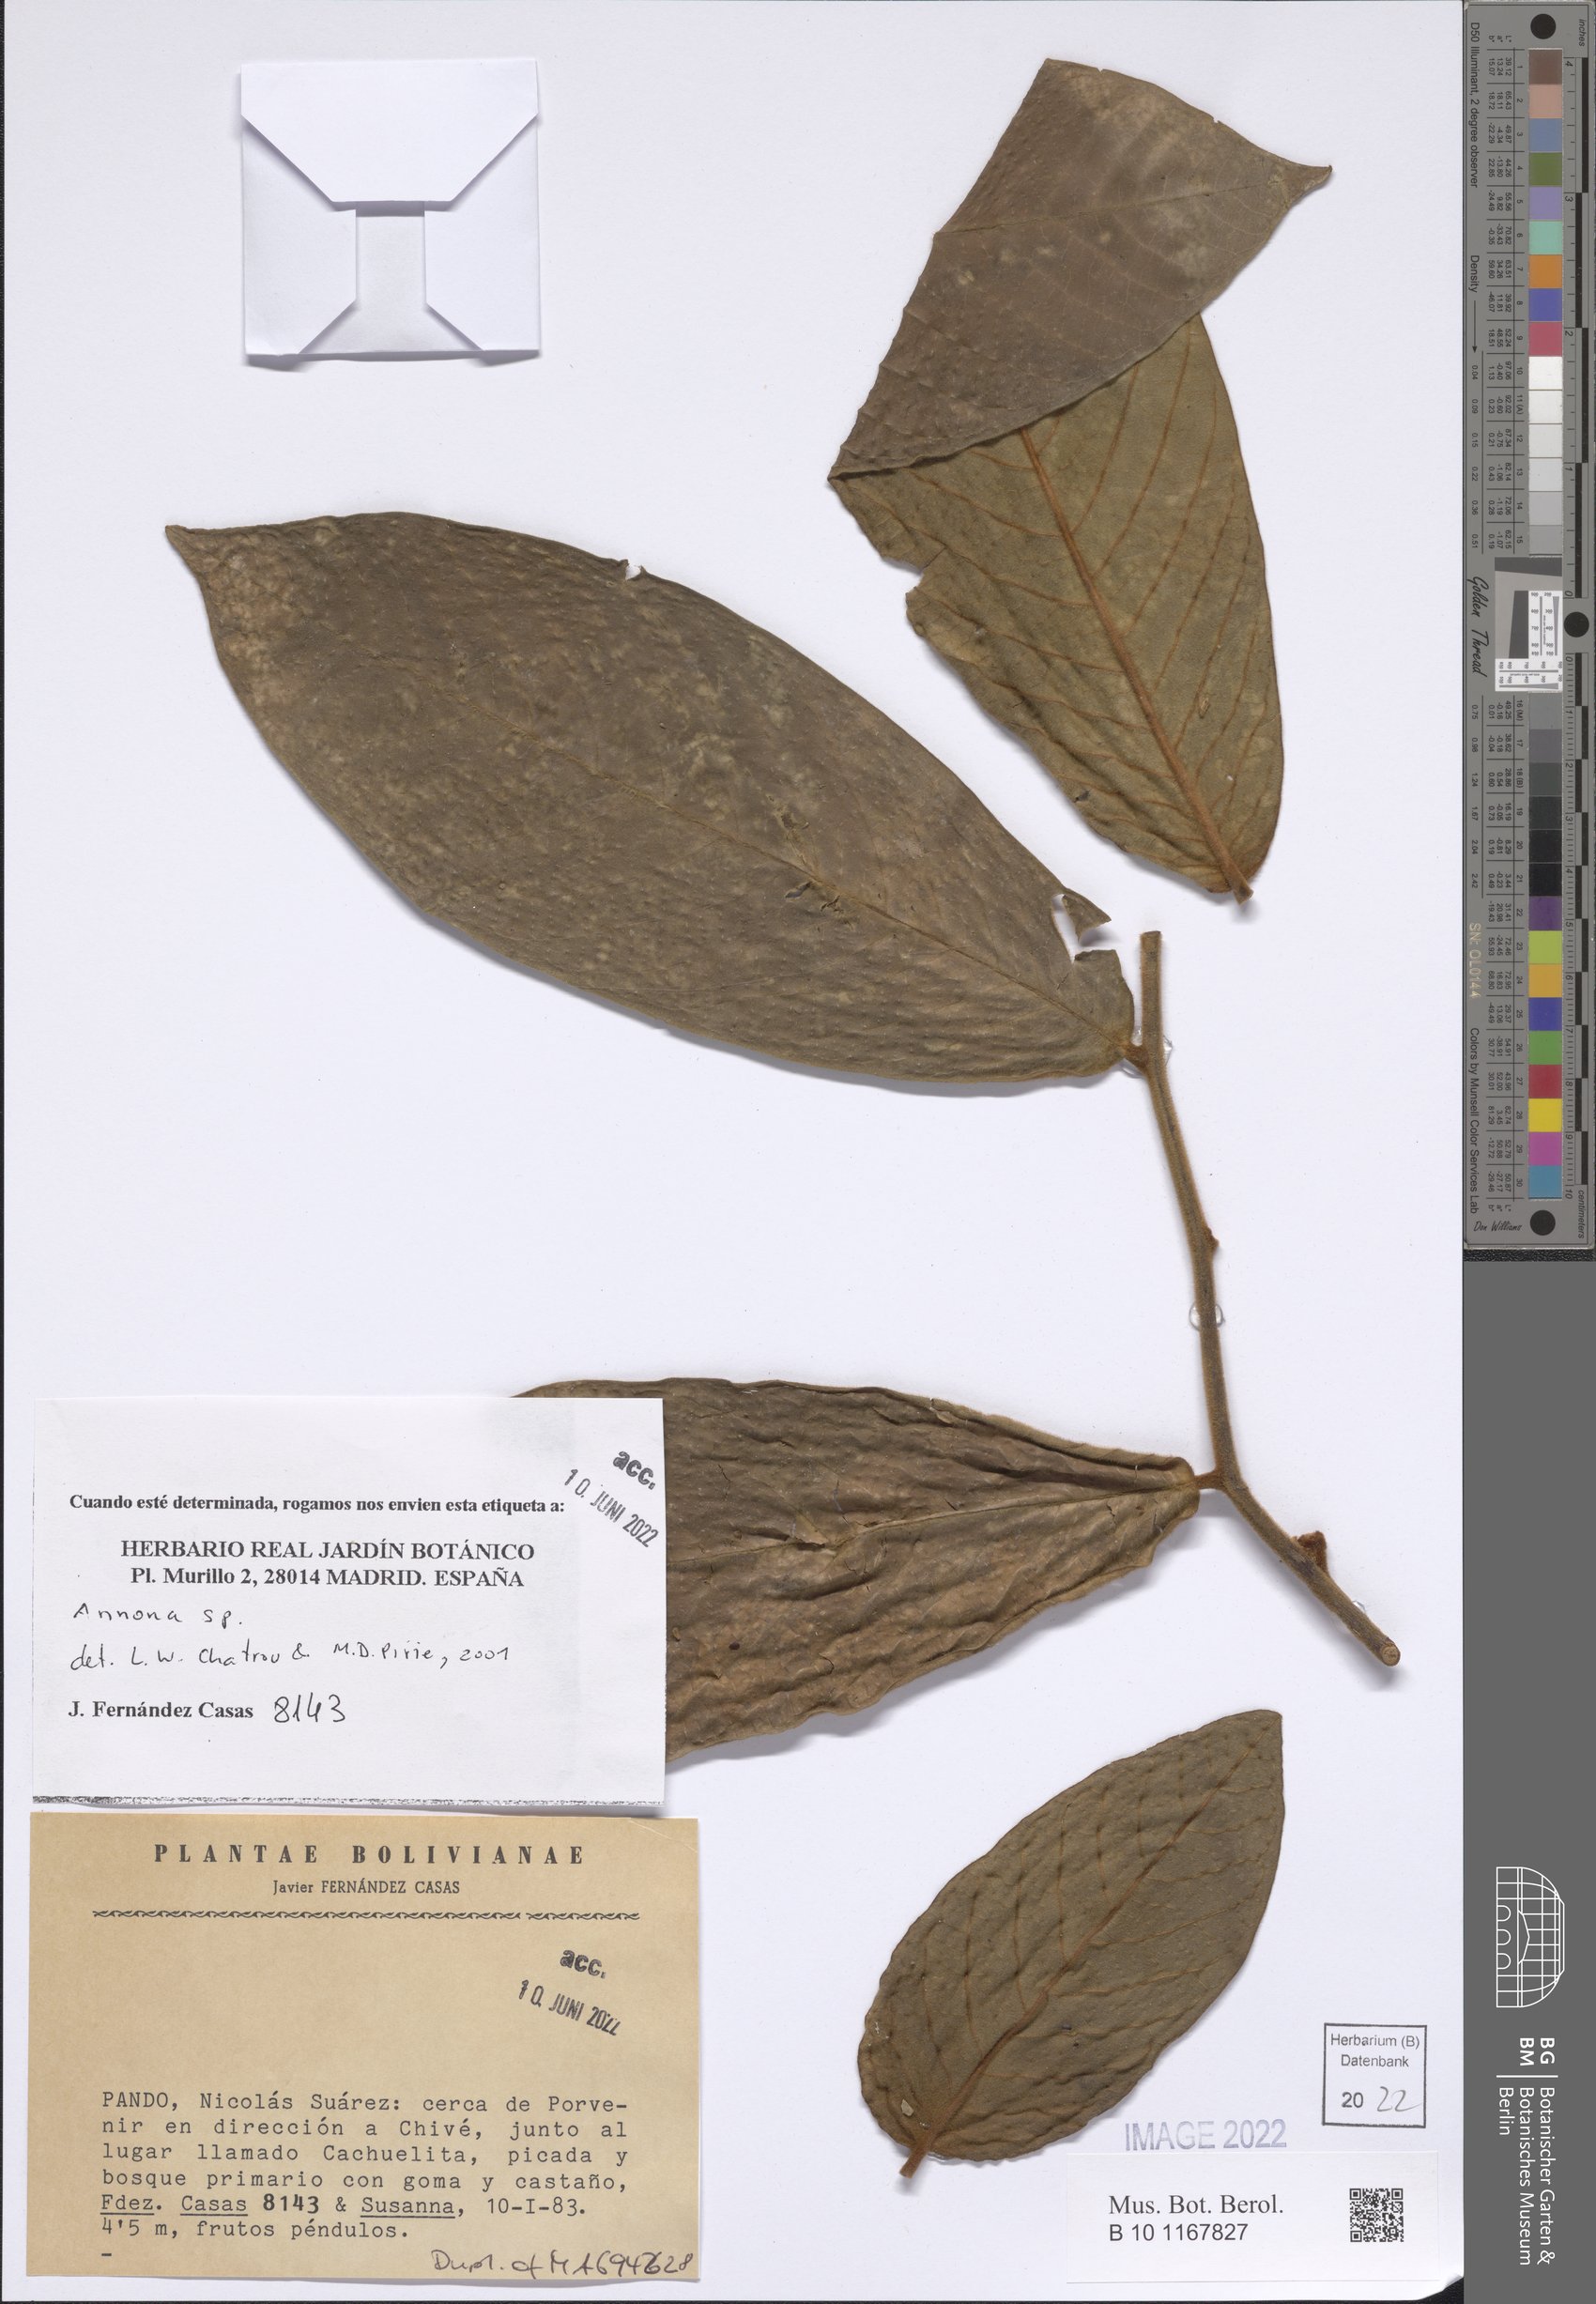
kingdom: Plantae
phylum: Tracheophyta
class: Magnoliopsida
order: Magnoliales
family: Annonaceae
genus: Annona
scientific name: Annona
